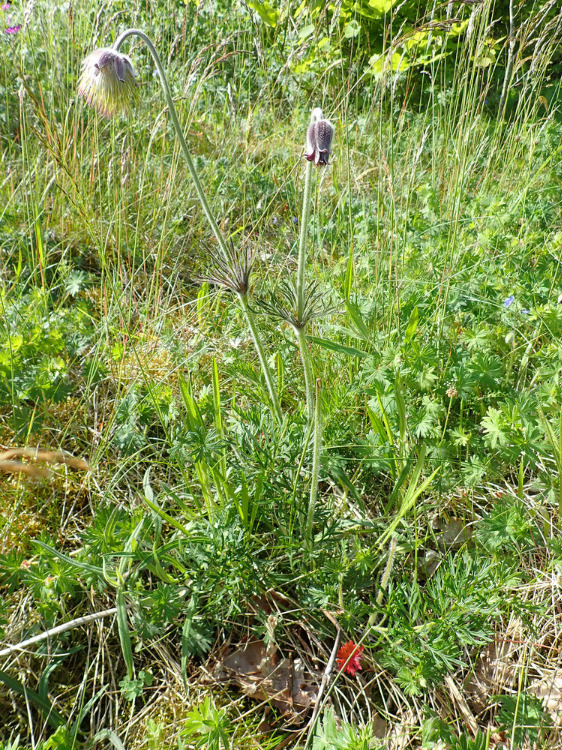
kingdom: Plantae
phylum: Tracheophyta
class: Magnoliopsida
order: Ranunculales
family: Ranunculaceae
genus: Pulsatilla
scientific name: Pulsatilla pratensis
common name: Nikkende kobjælde
